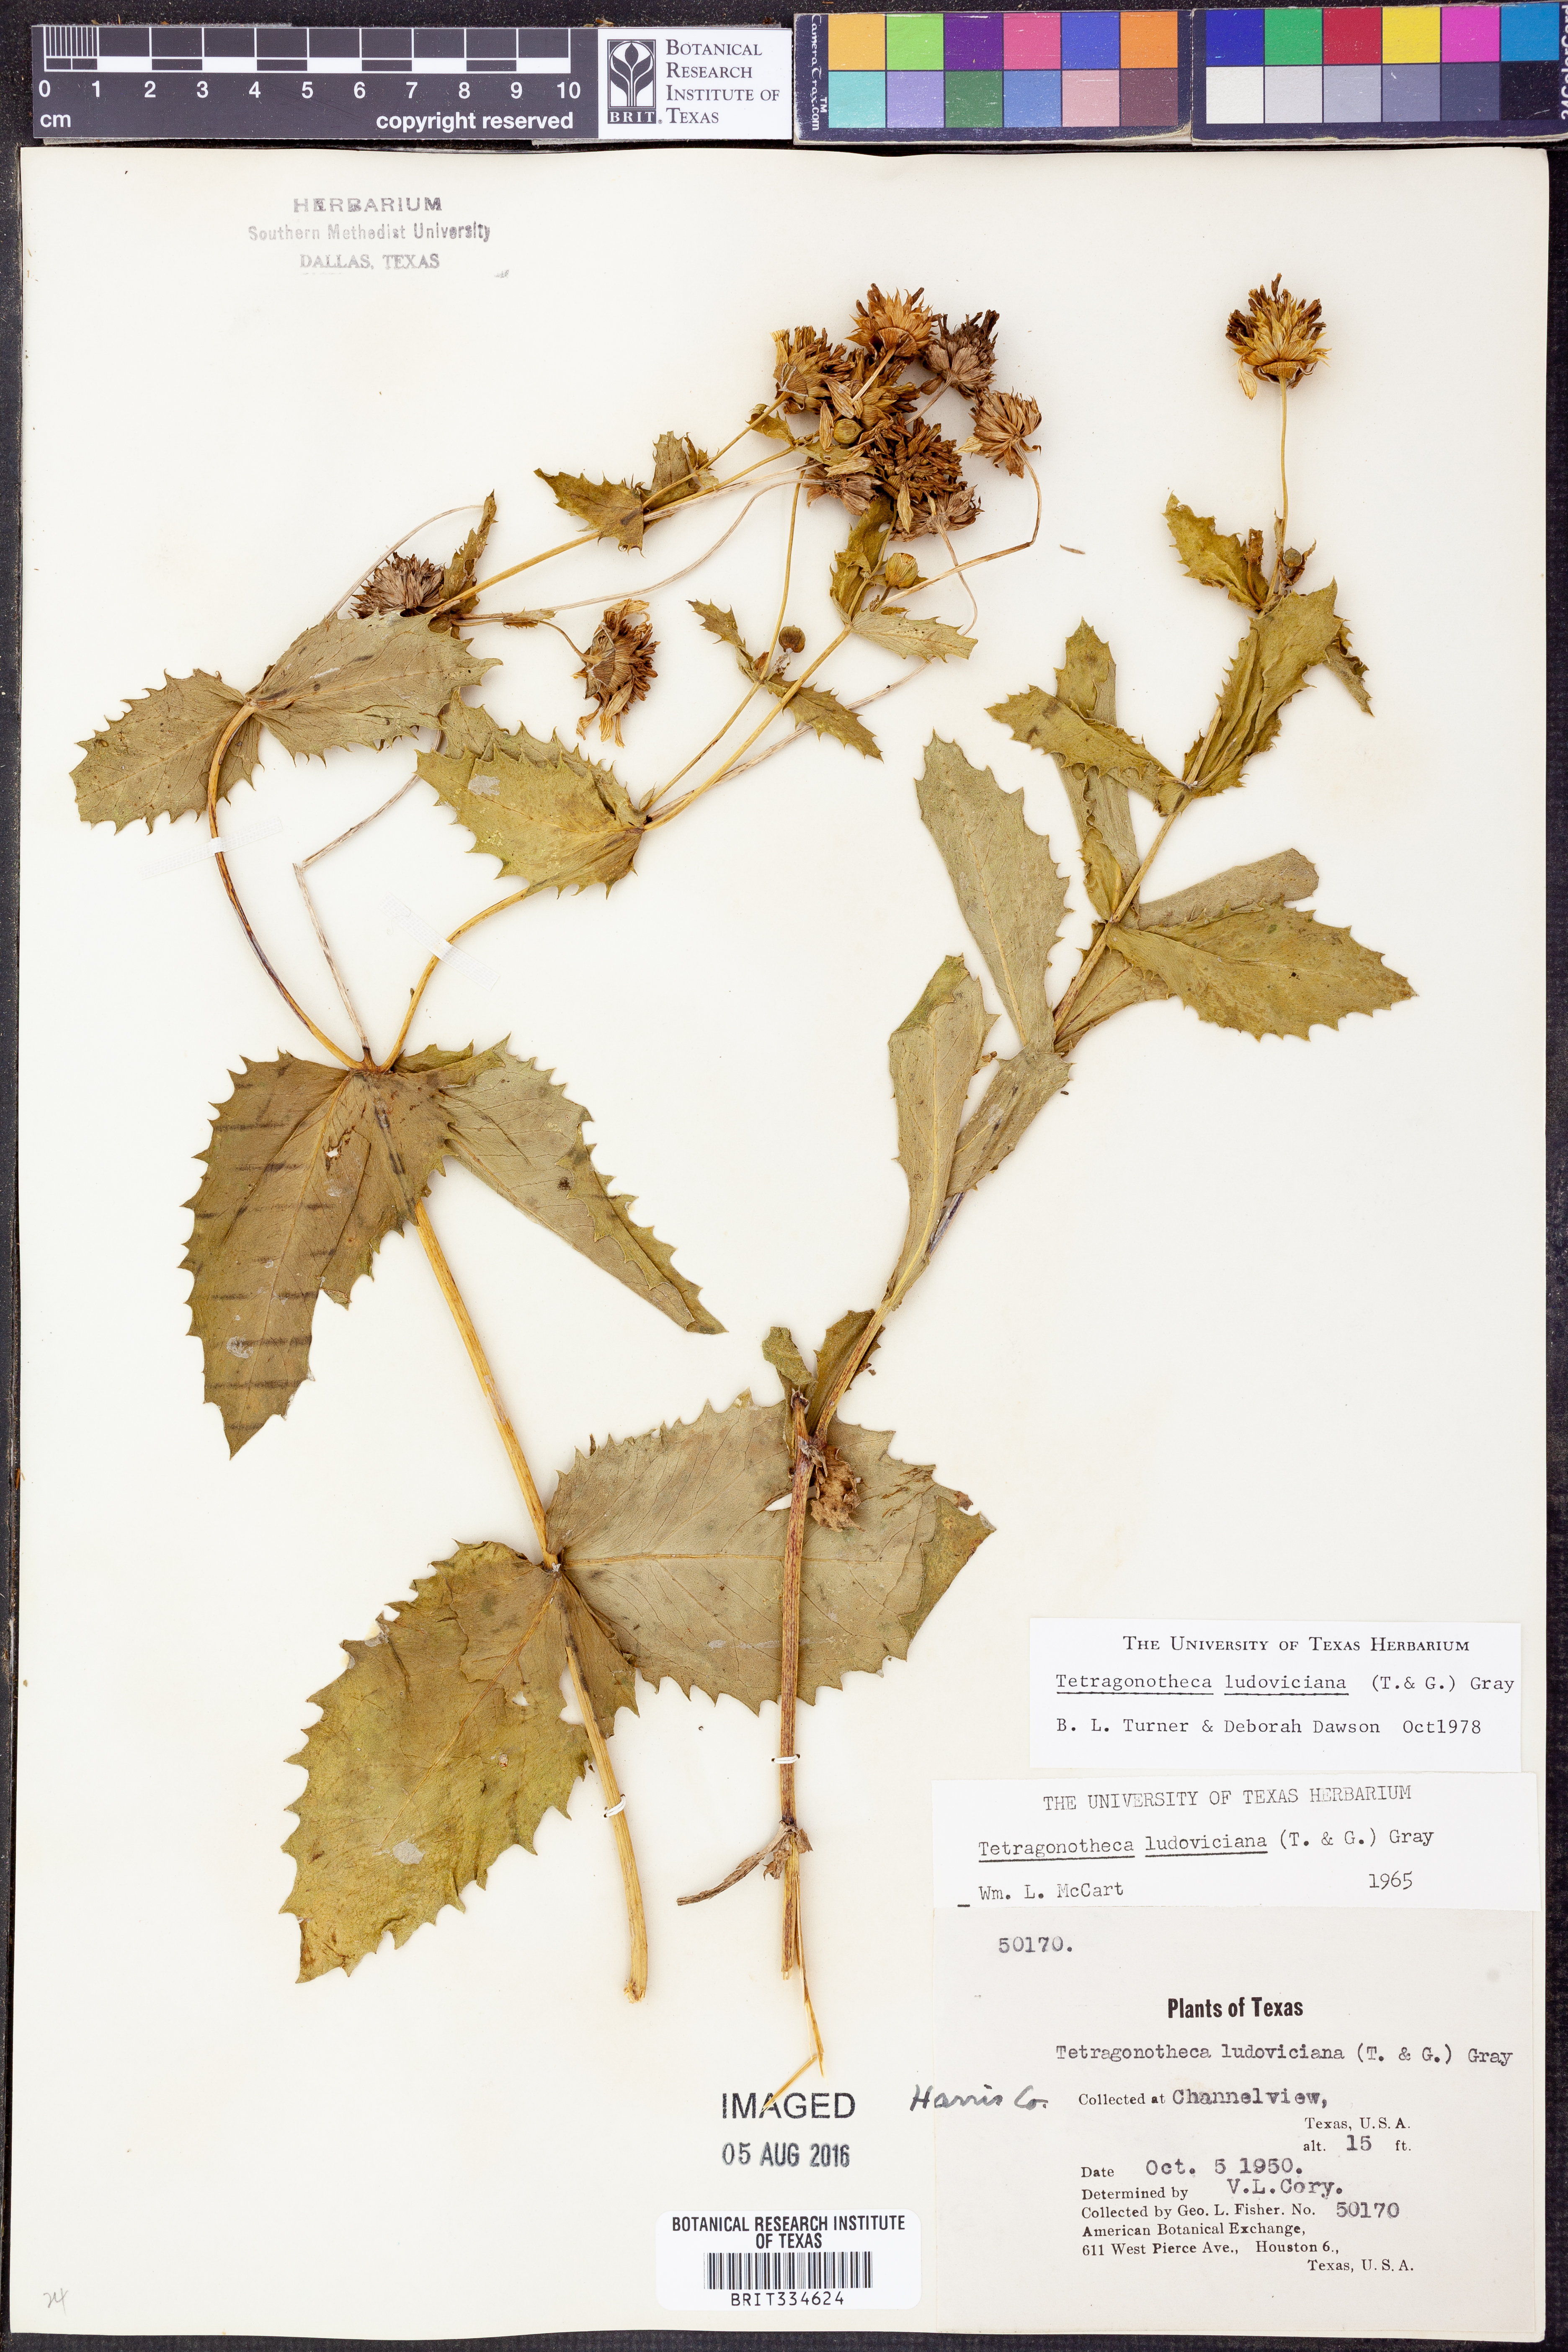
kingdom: Plantae
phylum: Tracheophyta
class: Magnoliopsida
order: Asterales
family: Asteraceae
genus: Tetragonotheca
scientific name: Tetragonotheca ludoviciana
